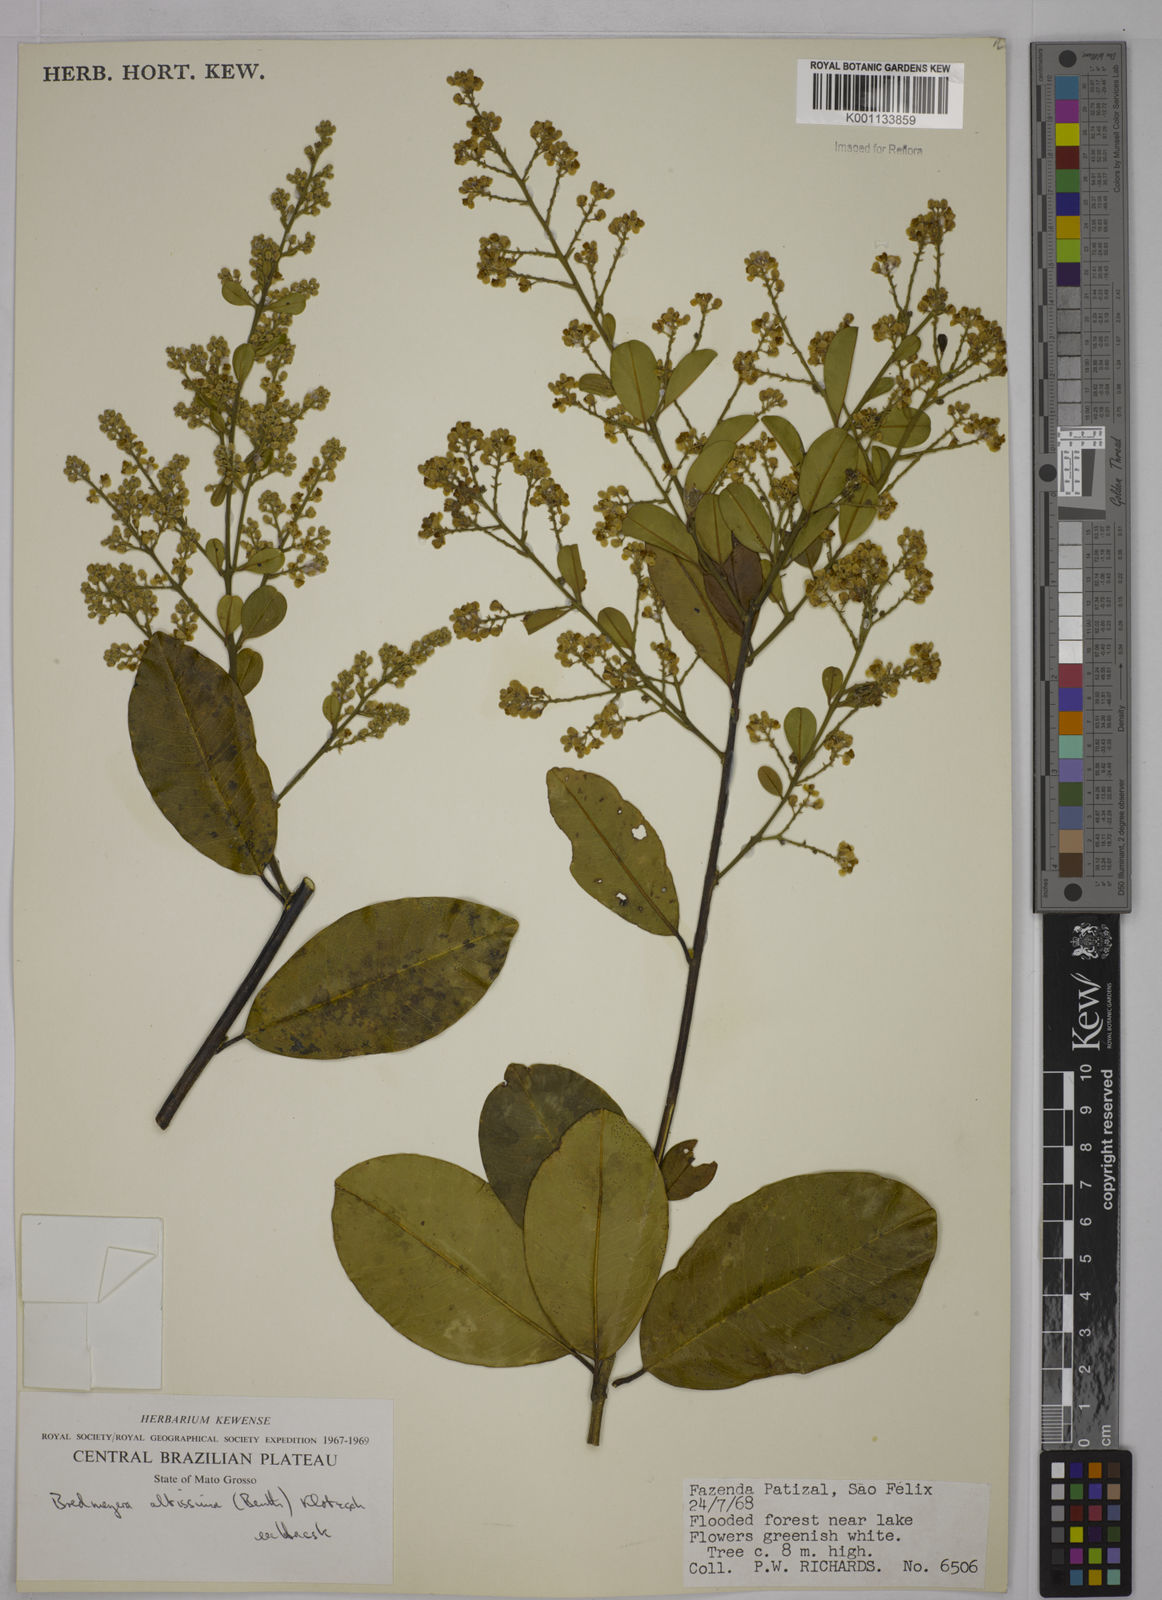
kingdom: Plantae
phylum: Tracheophyta
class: Magnoliopsida
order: Fabales
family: Polygalaceae
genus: Bredemeyera
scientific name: Bredemeyera divaricata
